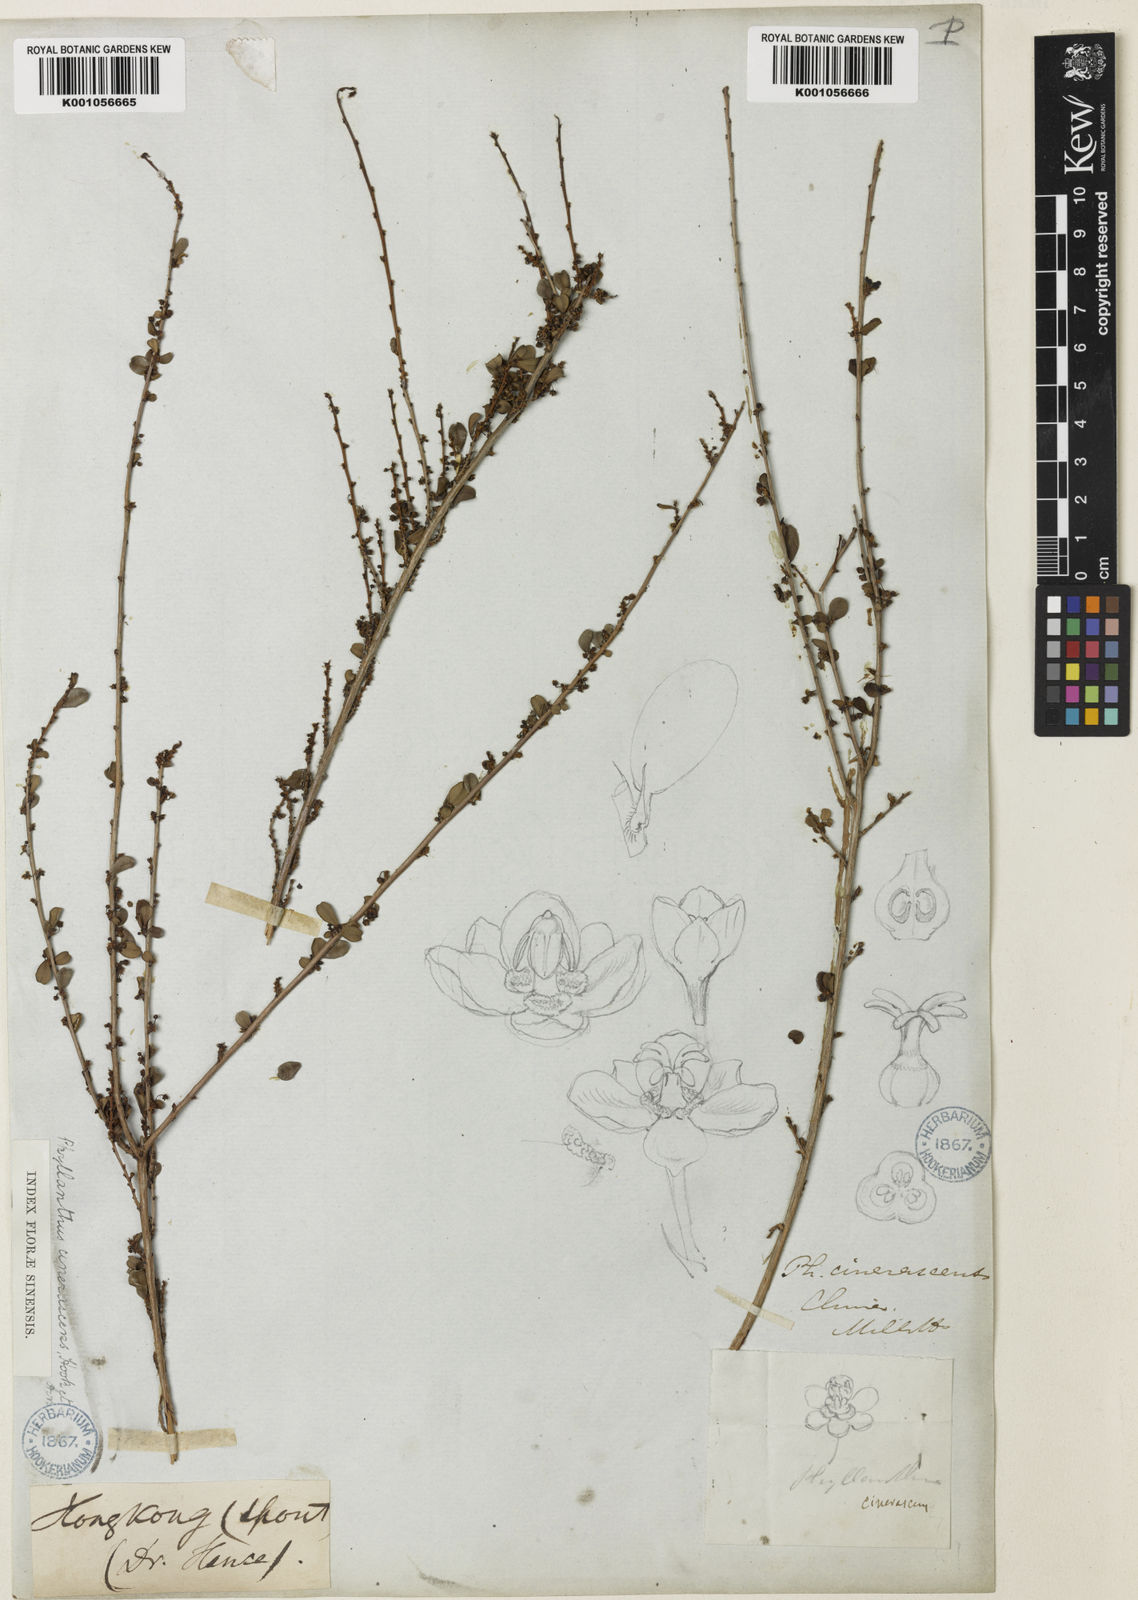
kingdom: Plantae
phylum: Tracheophyta
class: Magnoliopsida
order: Malpighiales
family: Phyllanthaceae
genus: Phyllanthus
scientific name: Phyllanthus cochinchinensis
